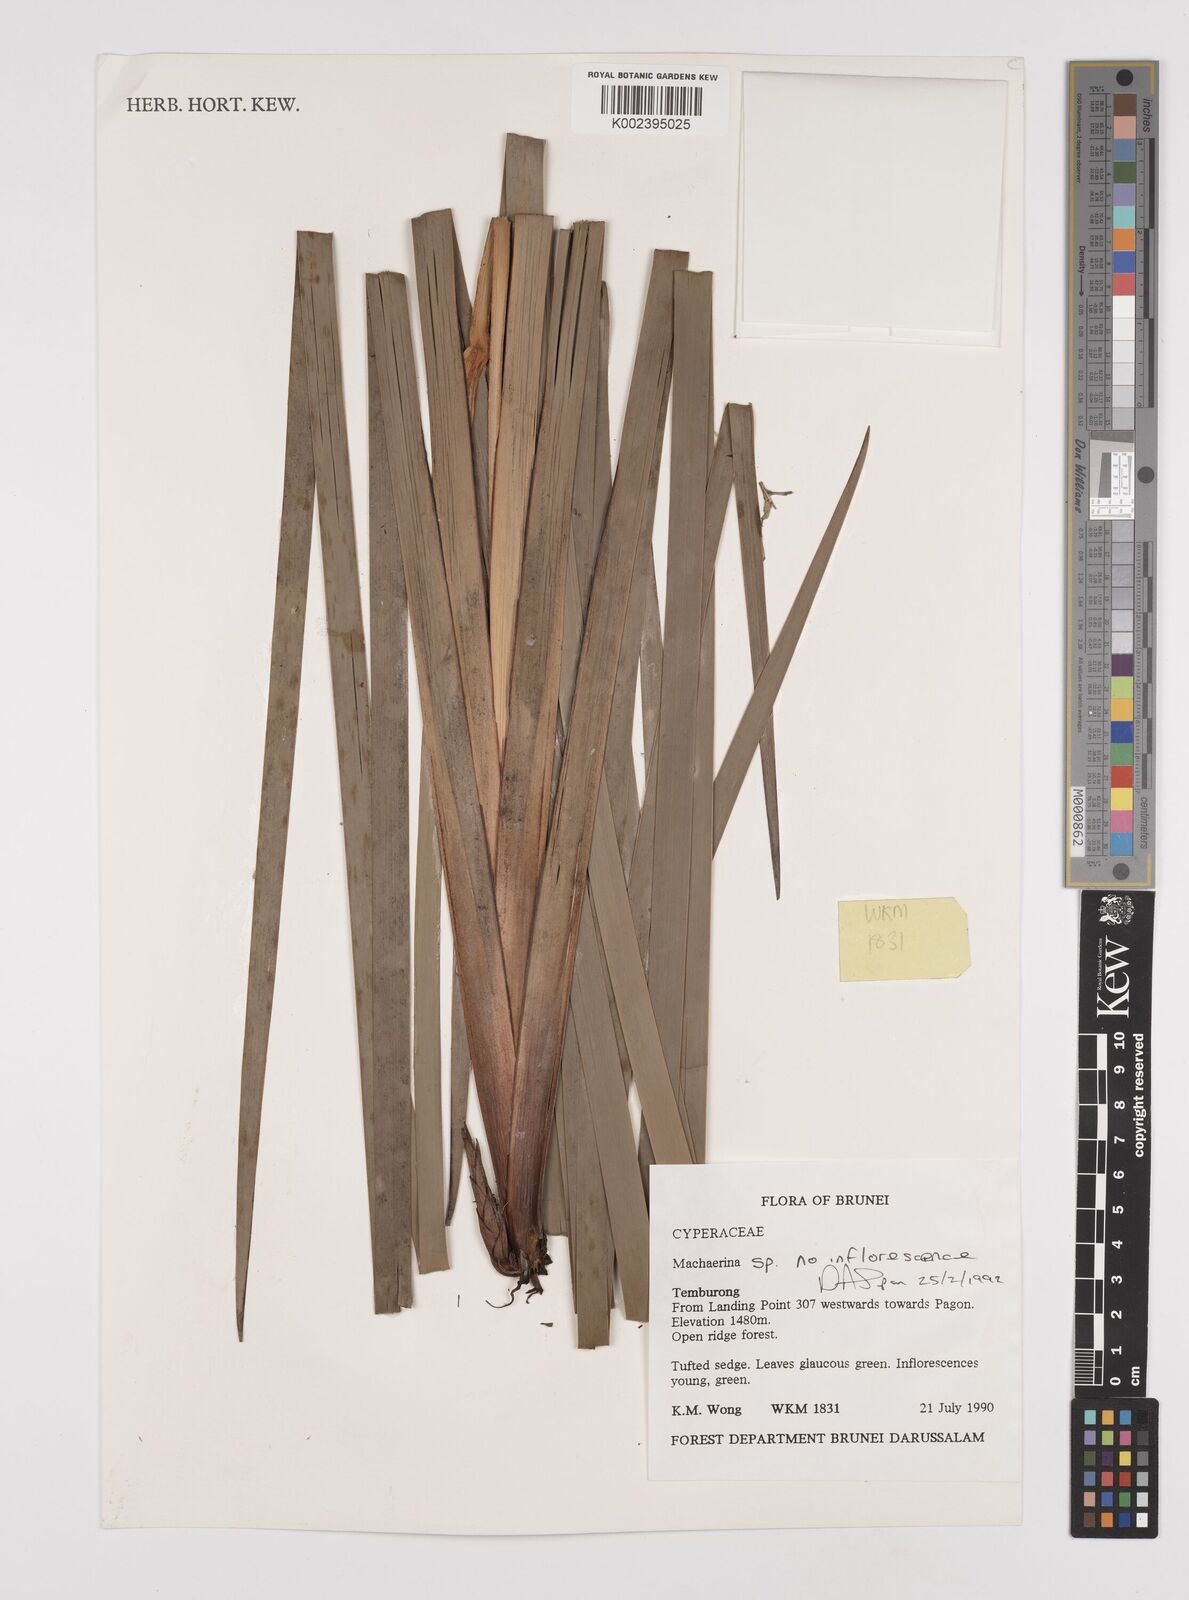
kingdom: Plantae
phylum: Tracheophyta
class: Liliopsida
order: Poales
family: Cyperaceae
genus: Machaerina
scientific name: Machaerina
